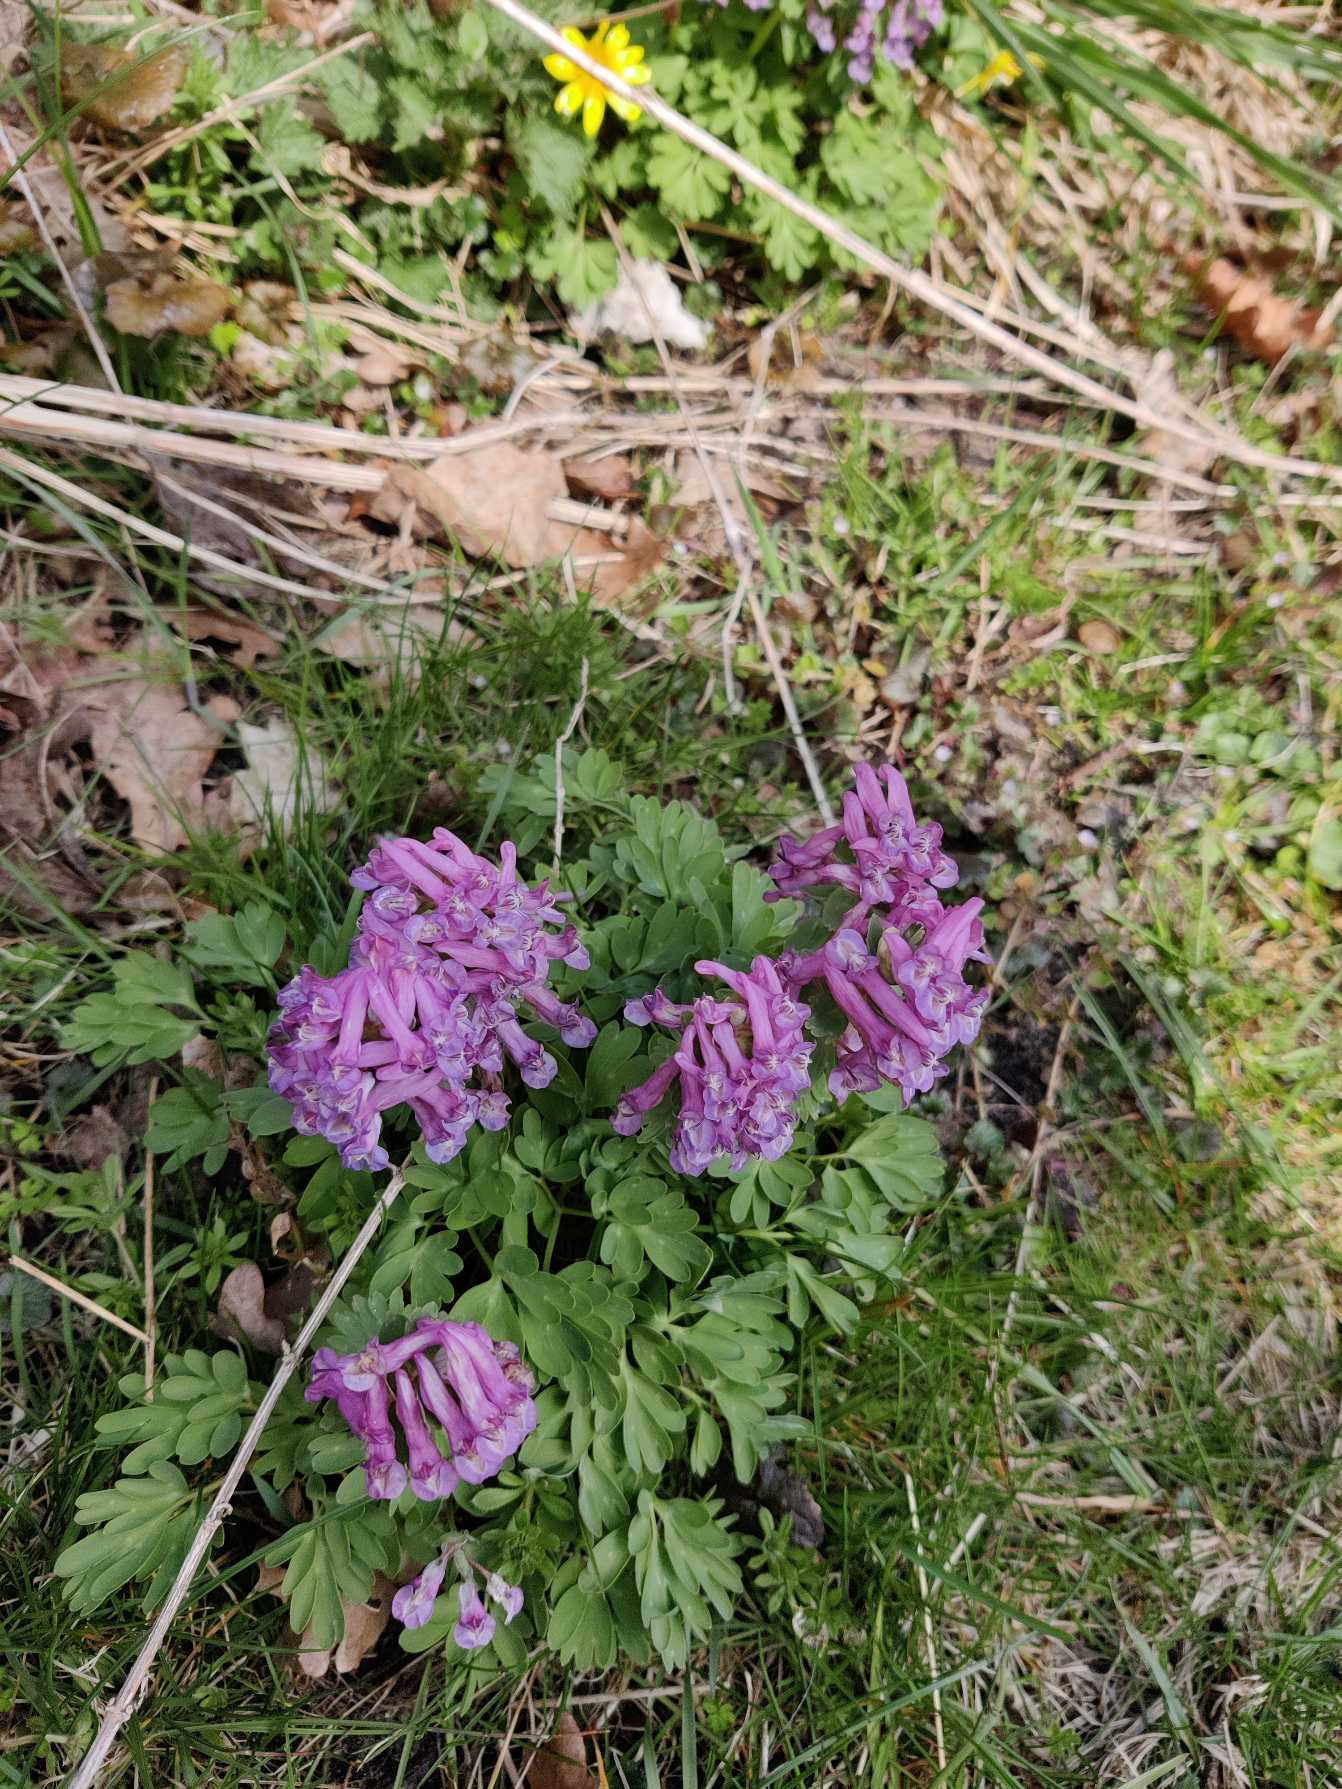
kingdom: Plantae
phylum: Tracheophyta
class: Magnoliopsida
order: Ranunculales
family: Papaveraceae
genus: Corydalis
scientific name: Corydalis solida
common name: Langstilket lærkespore
